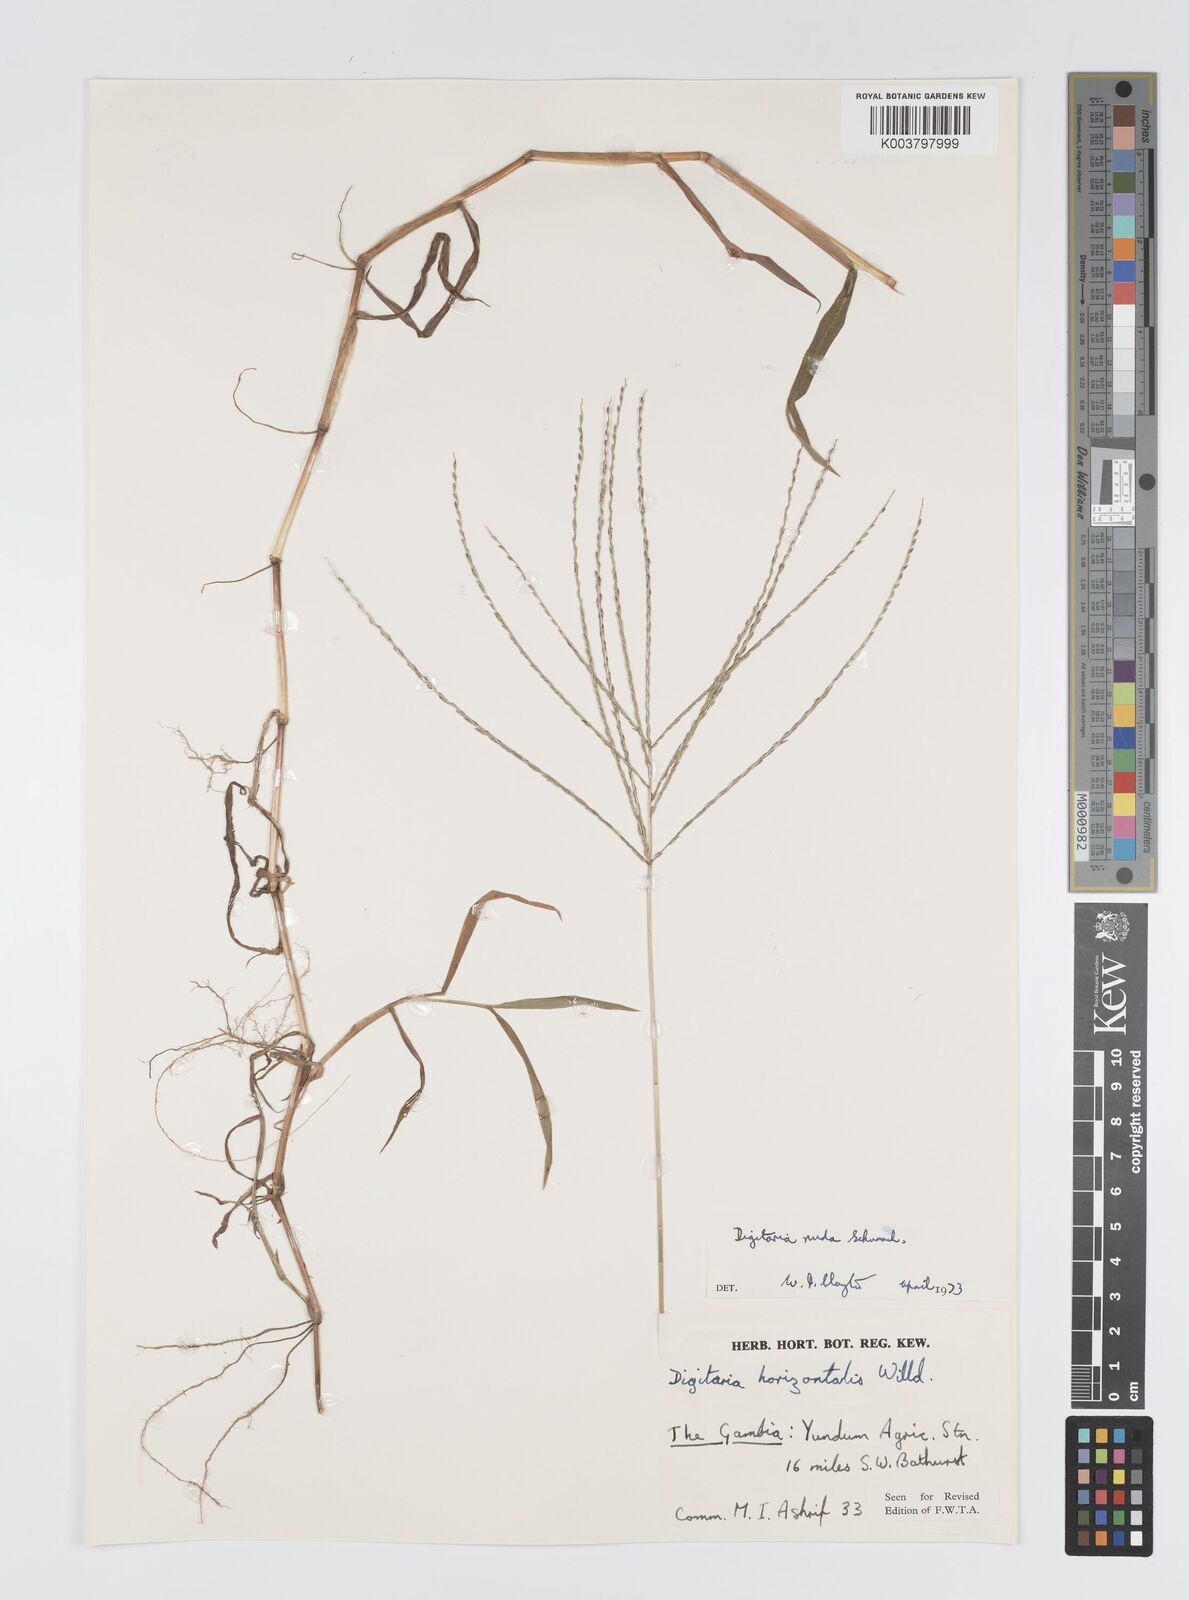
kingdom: Plantae
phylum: Tracheophyta
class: Liliopsida
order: Poales
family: Poaceae
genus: Digitaria
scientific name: Digitaria nuda
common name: Naked crabgrass
